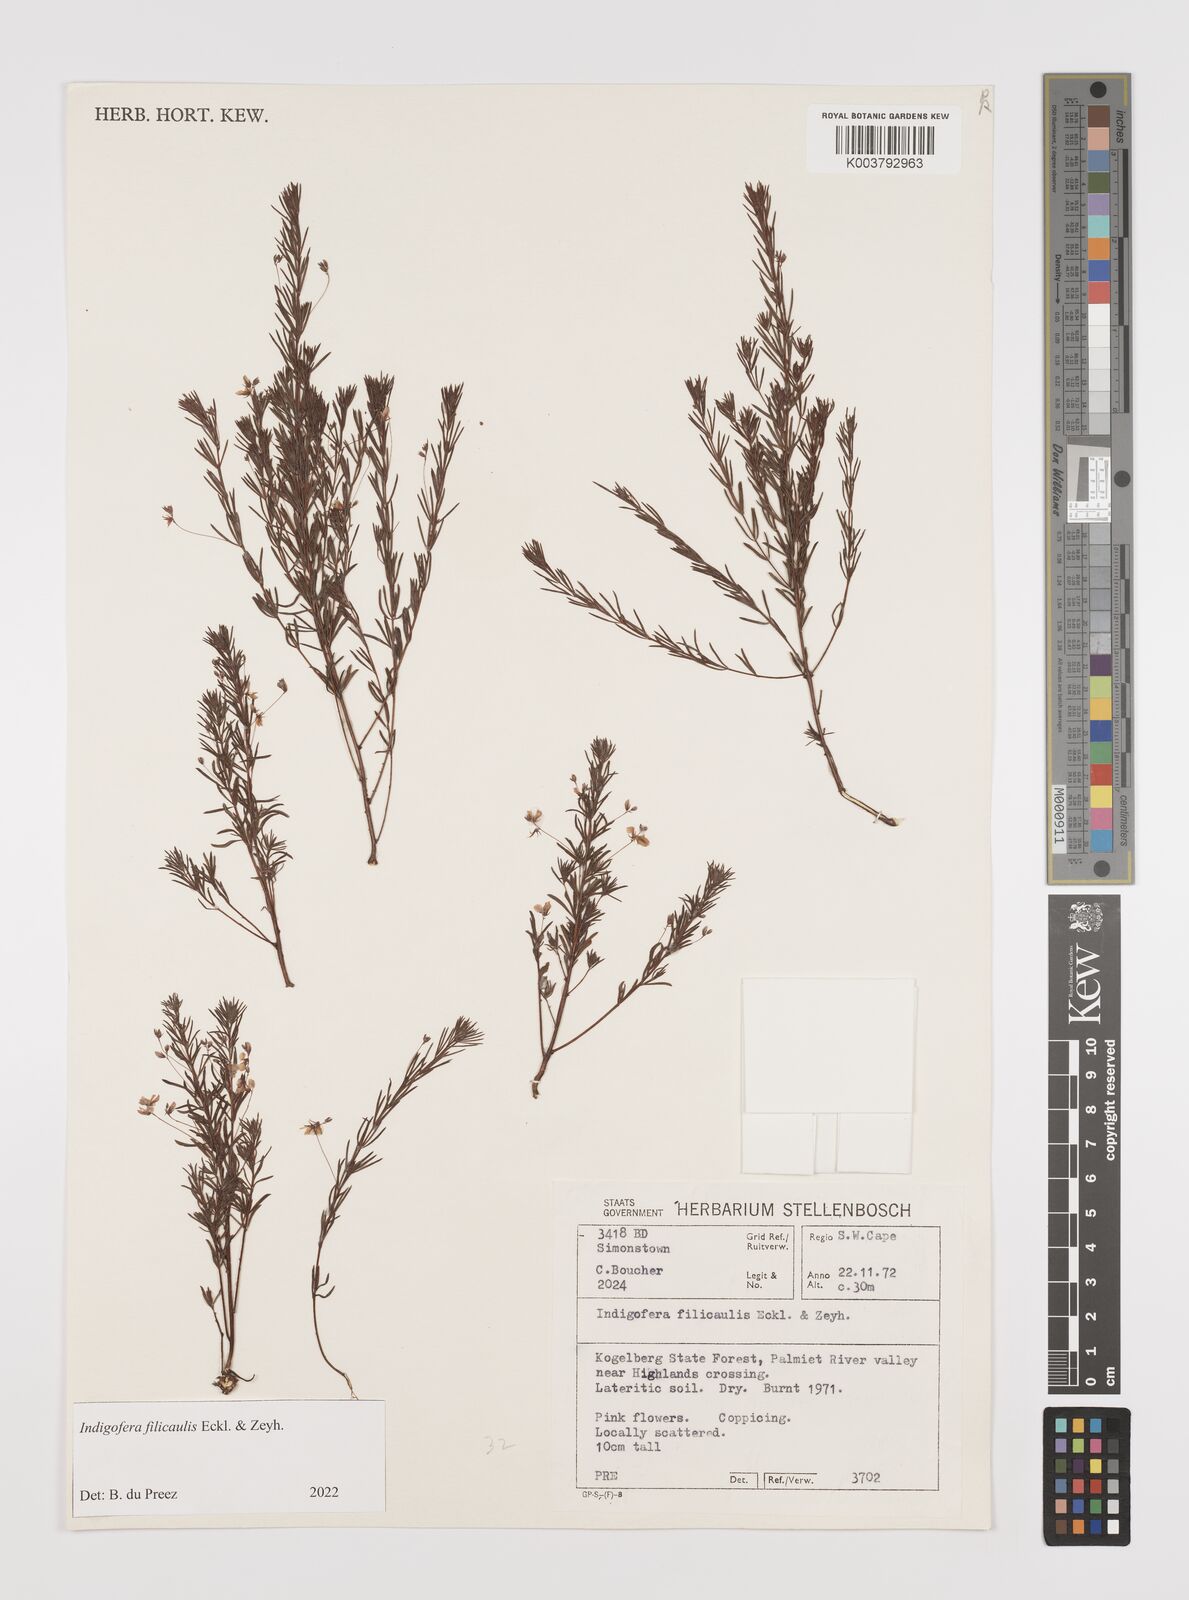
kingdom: Plantae
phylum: Tracheophyta
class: Magnoliopsida
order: Fabales
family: Fabaceae
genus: Indigofera
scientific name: Indigofera filicaulis
